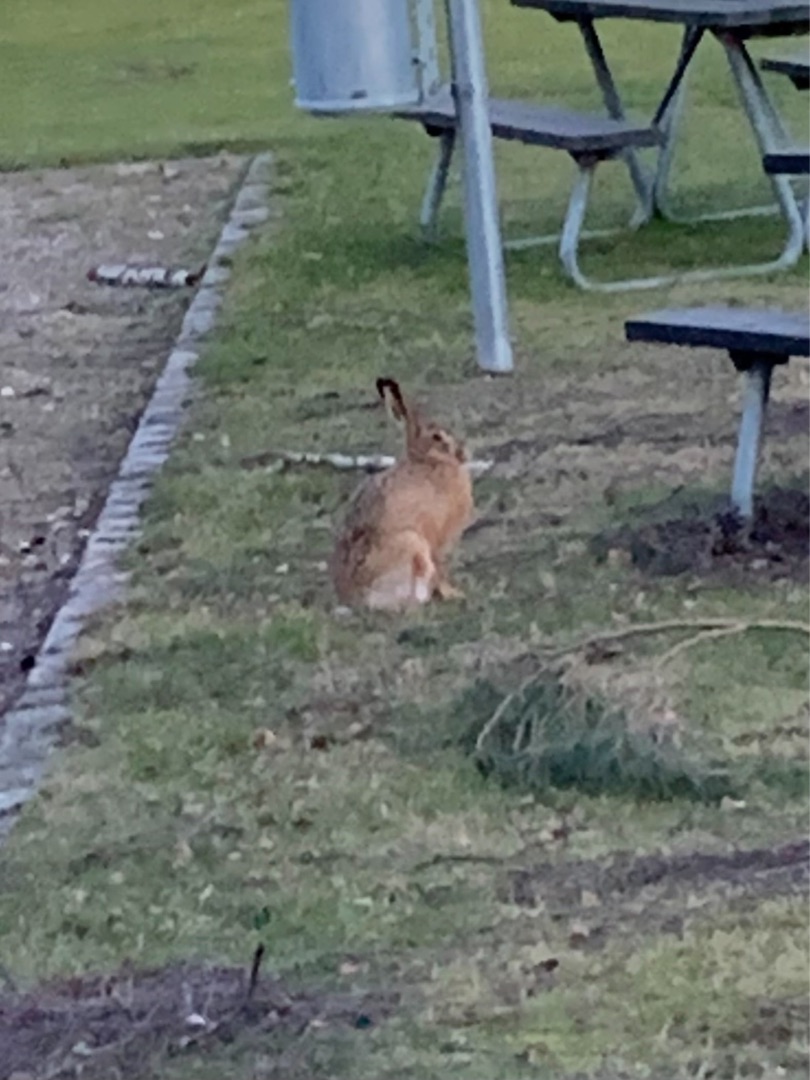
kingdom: Animalia
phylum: Chordata
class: Mammalia
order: Lagomorpha
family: Leporidae
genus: Lepus
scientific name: Lepus europaeus
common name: Hare
